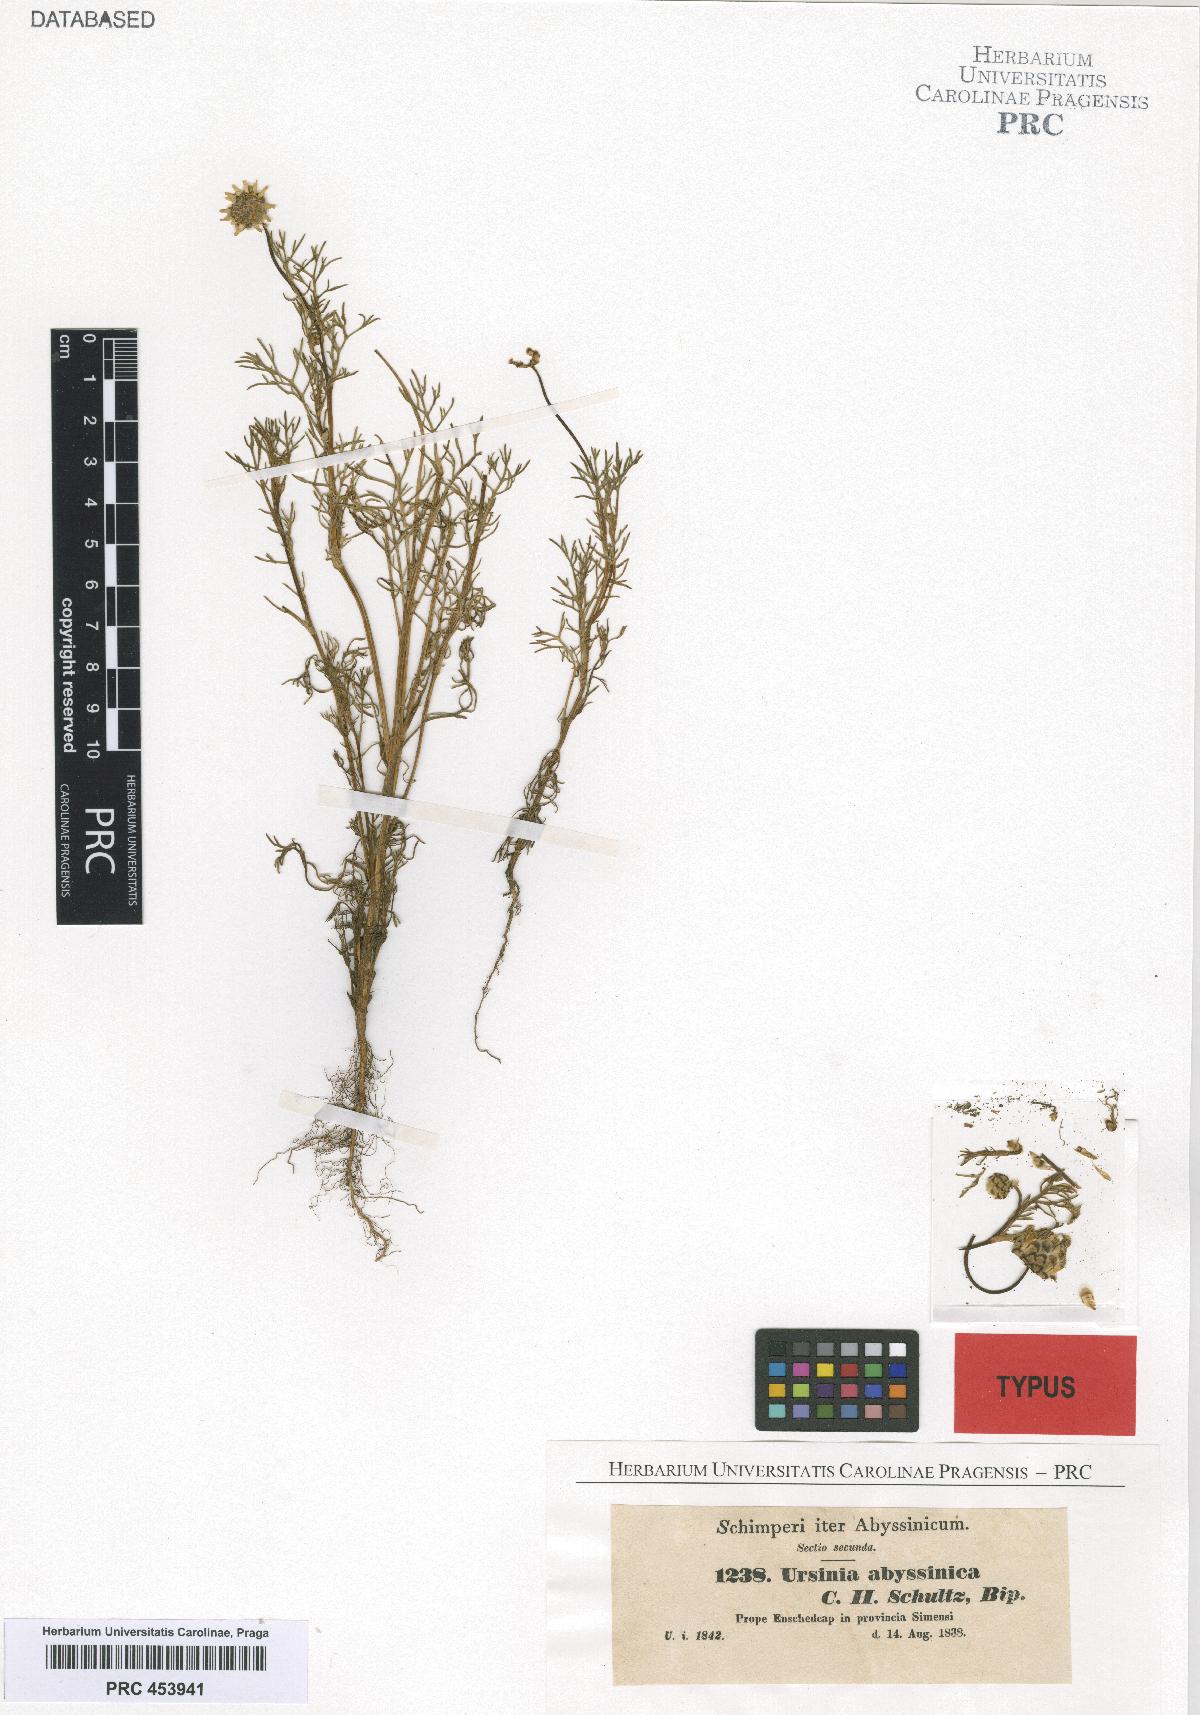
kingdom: Plantae
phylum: Tracheophyta
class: Magnoliopsida
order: Asterales
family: Asteraceae
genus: Ursinia
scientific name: Ursinia nana
